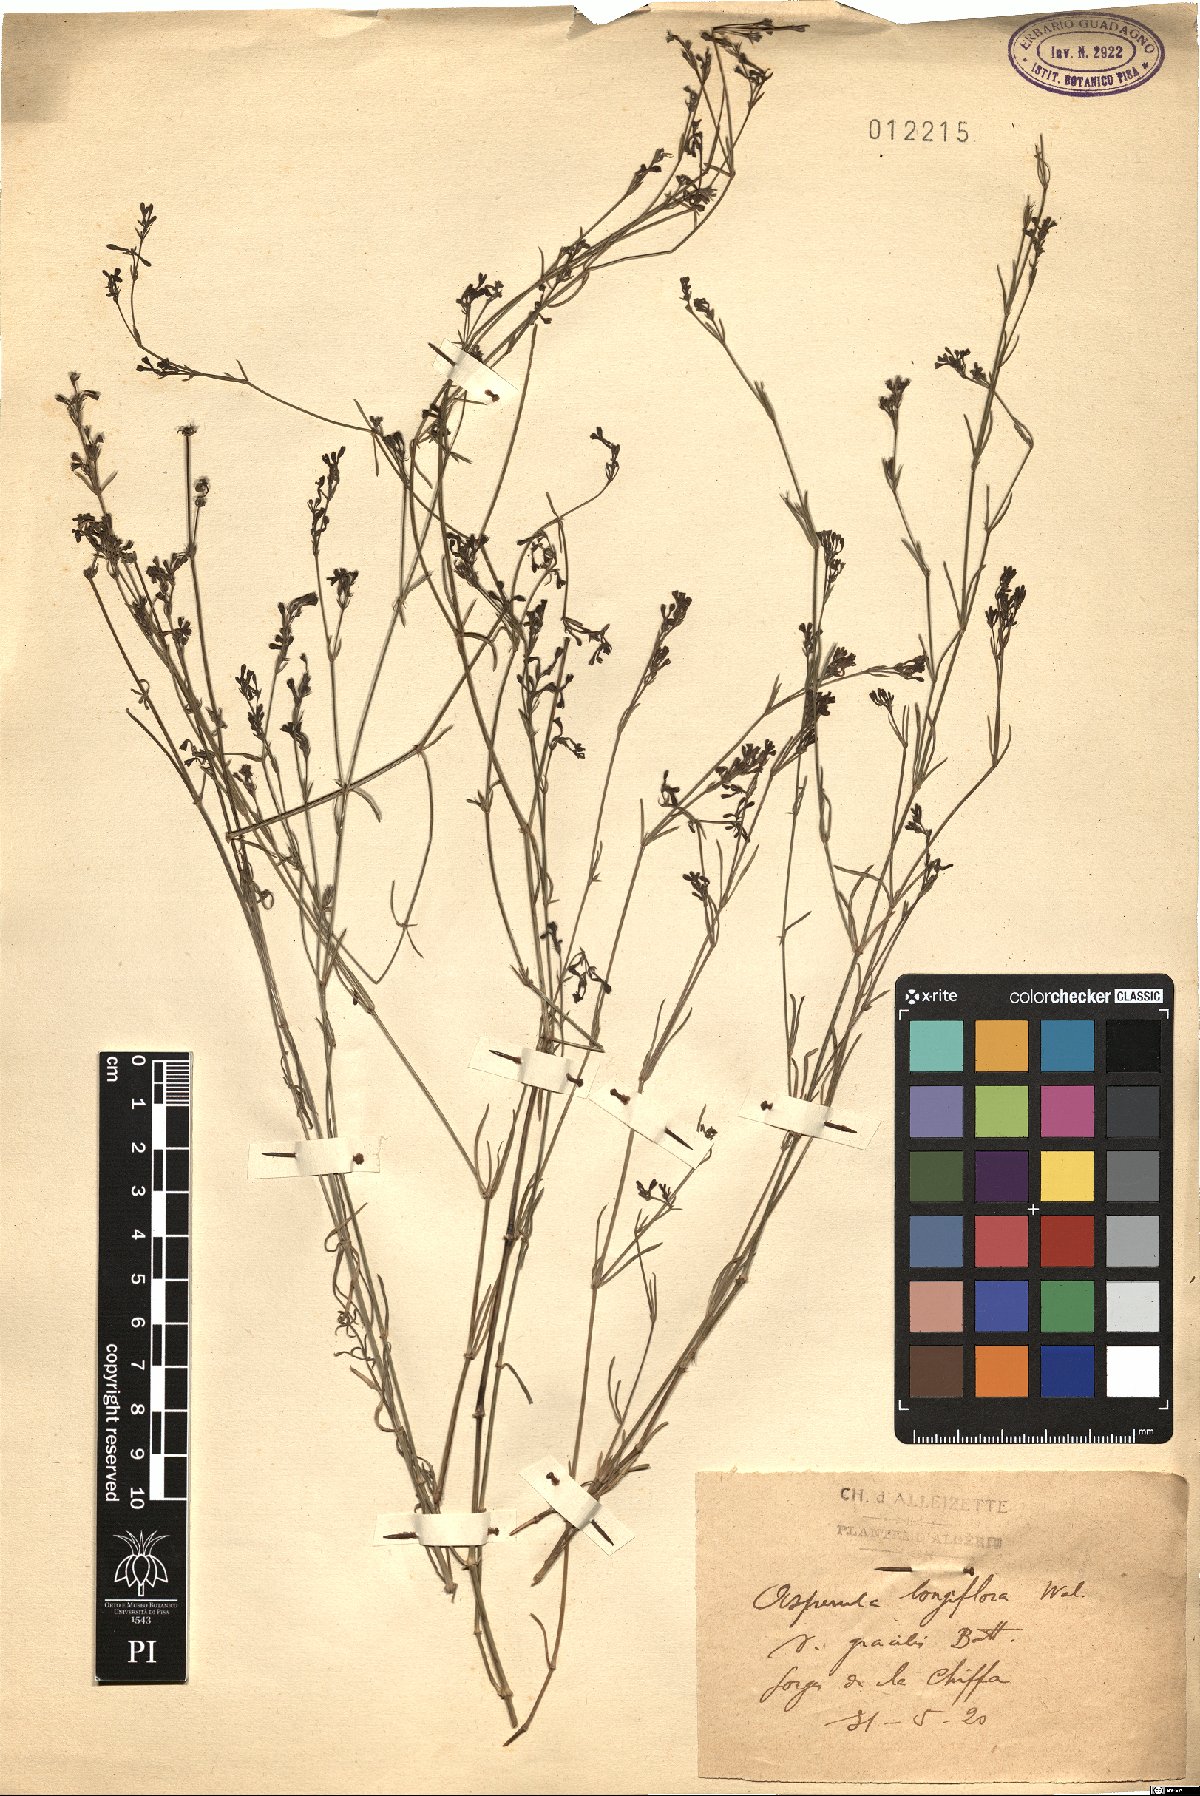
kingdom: Plantae
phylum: Tracheophyta
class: Magnoliopsida
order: Gentianales
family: Rubiaceae
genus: Cynanchica
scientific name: Cynanchica aristata
